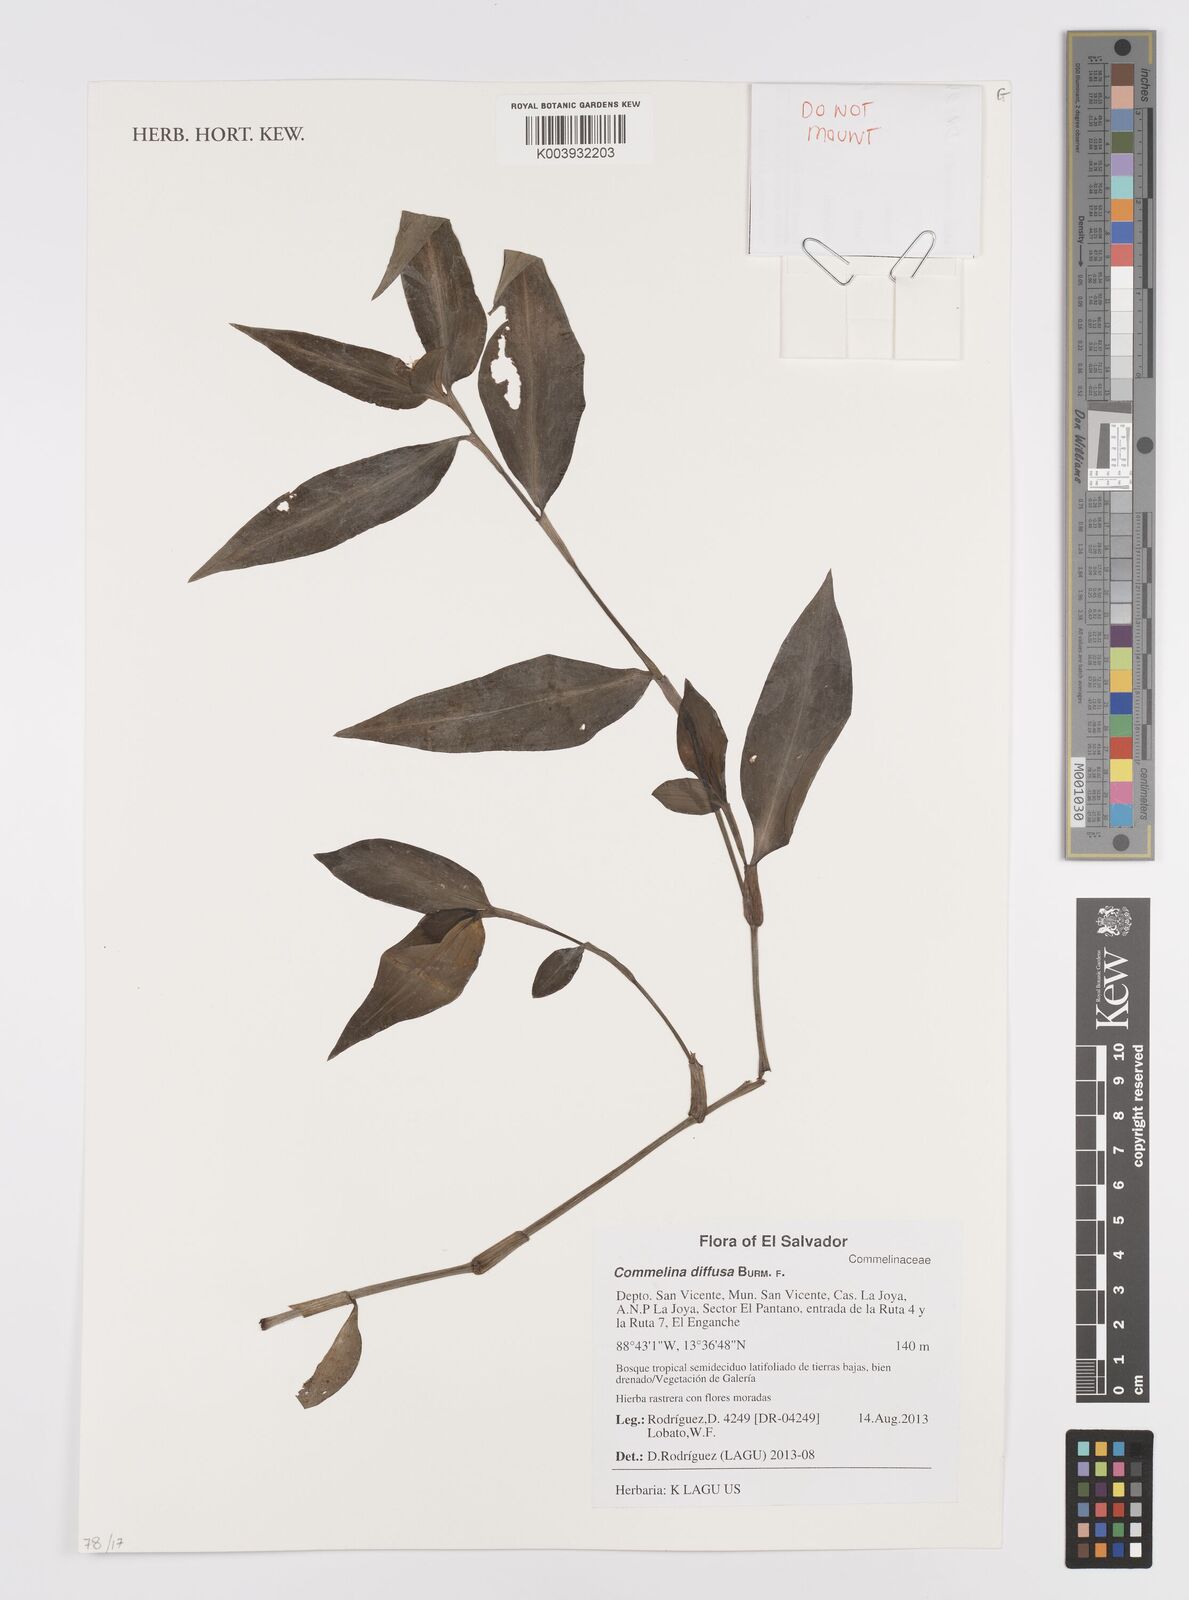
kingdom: Plantae
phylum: Tracheophyta
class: Liliopsida
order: Commelinales
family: Commelinaceae
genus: Commelina
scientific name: Commelina diffusa
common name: Climbing dayflower
